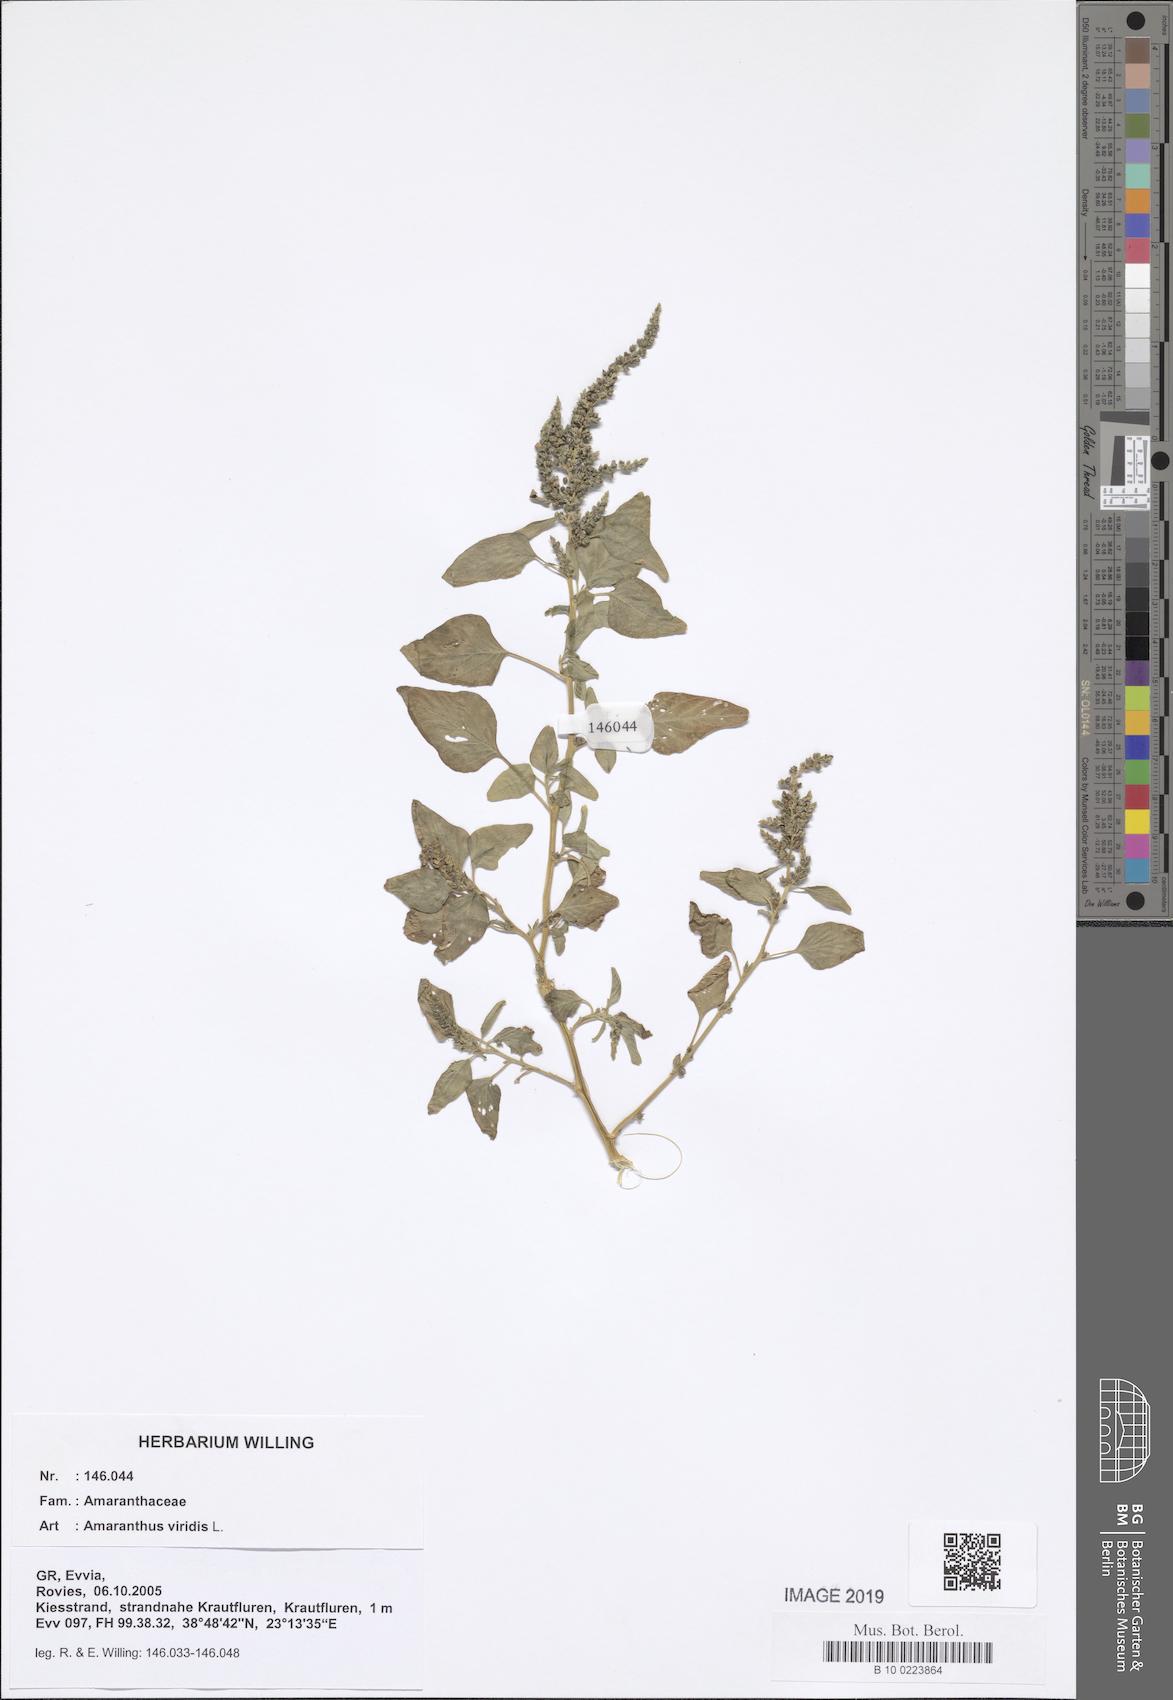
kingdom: Plantae
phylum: Tracheophyta
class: Magnoliopsida
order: Caryophyllales
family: Amaranthaceae
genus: Amaranthus
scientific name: Amaranthus viridis
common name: Slender amaranth
